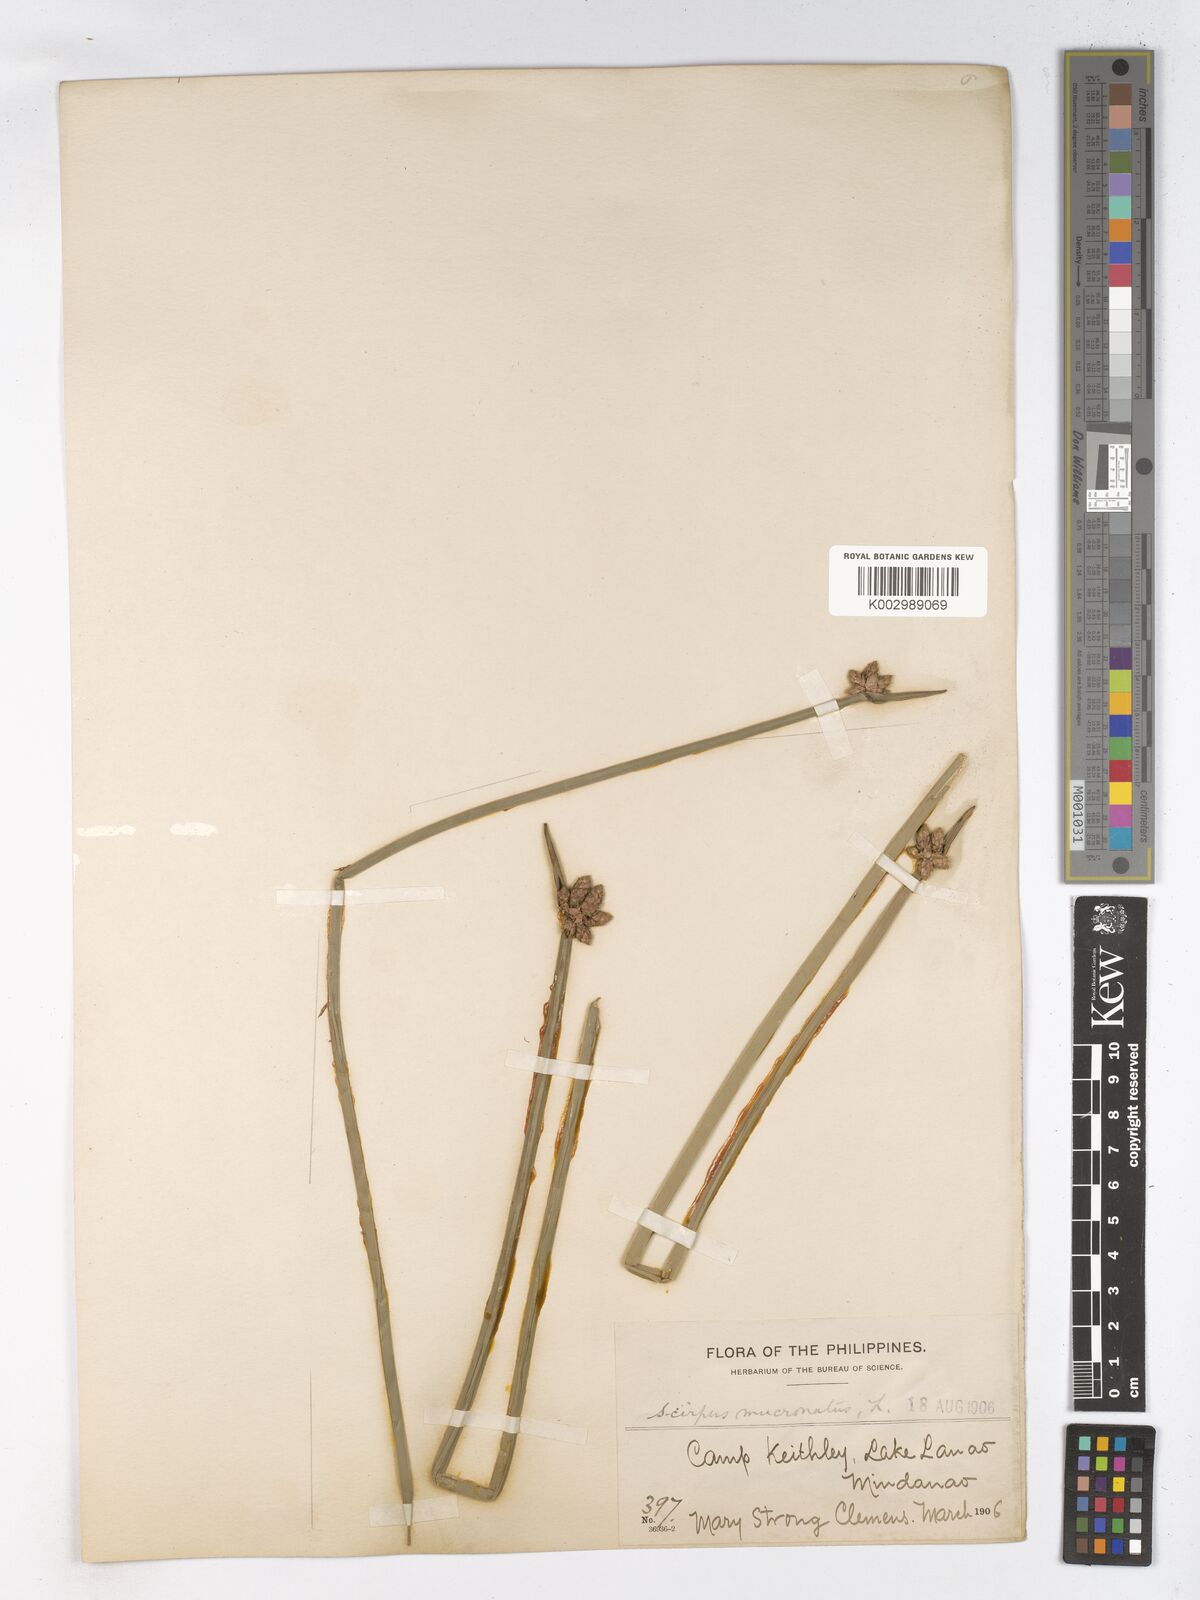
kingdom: Plantae
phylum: Tracheophyta
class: Liliopsida
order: Poales
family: Cyperaceae
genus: Schoenoplectiella
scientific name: Schoenoplectiella mucronata
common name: Bog bulrush
